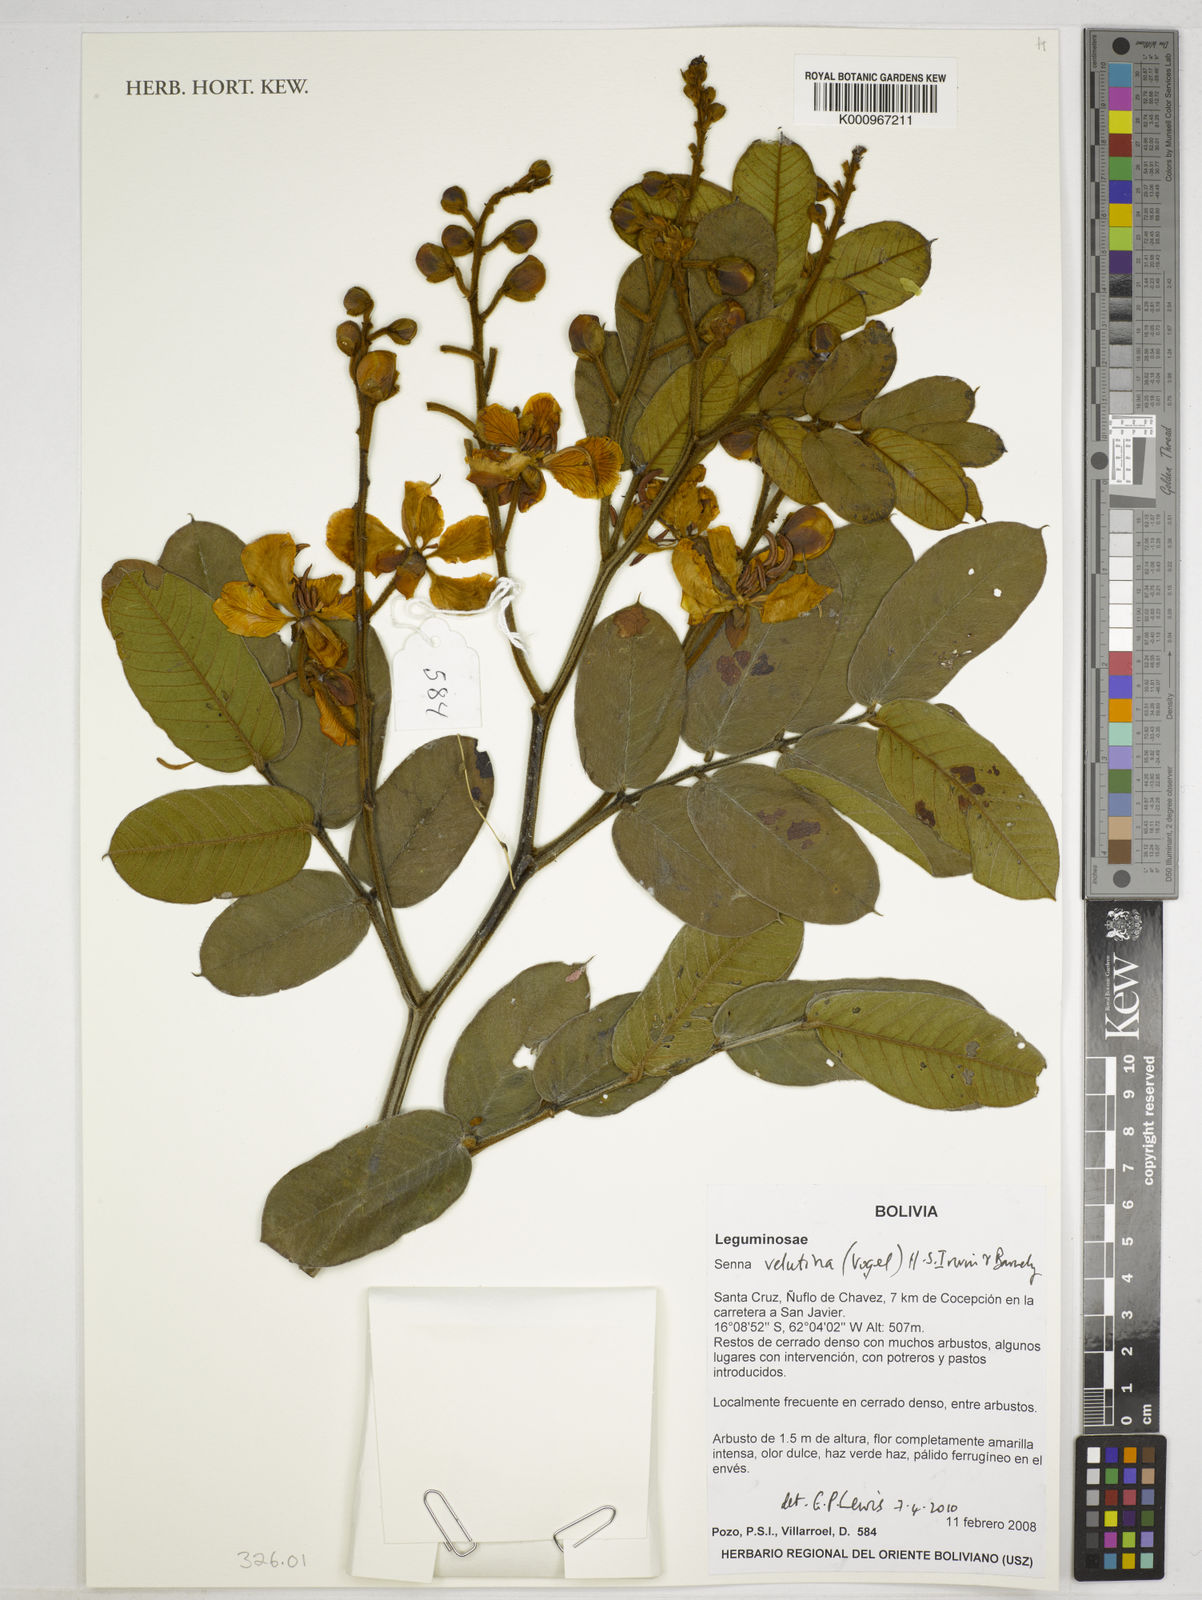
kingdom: Plantae
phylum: Tracheophyta
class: Magnoliopsida
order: Fabales
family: Fabaceae
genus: Senna
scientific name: Senna velutina
